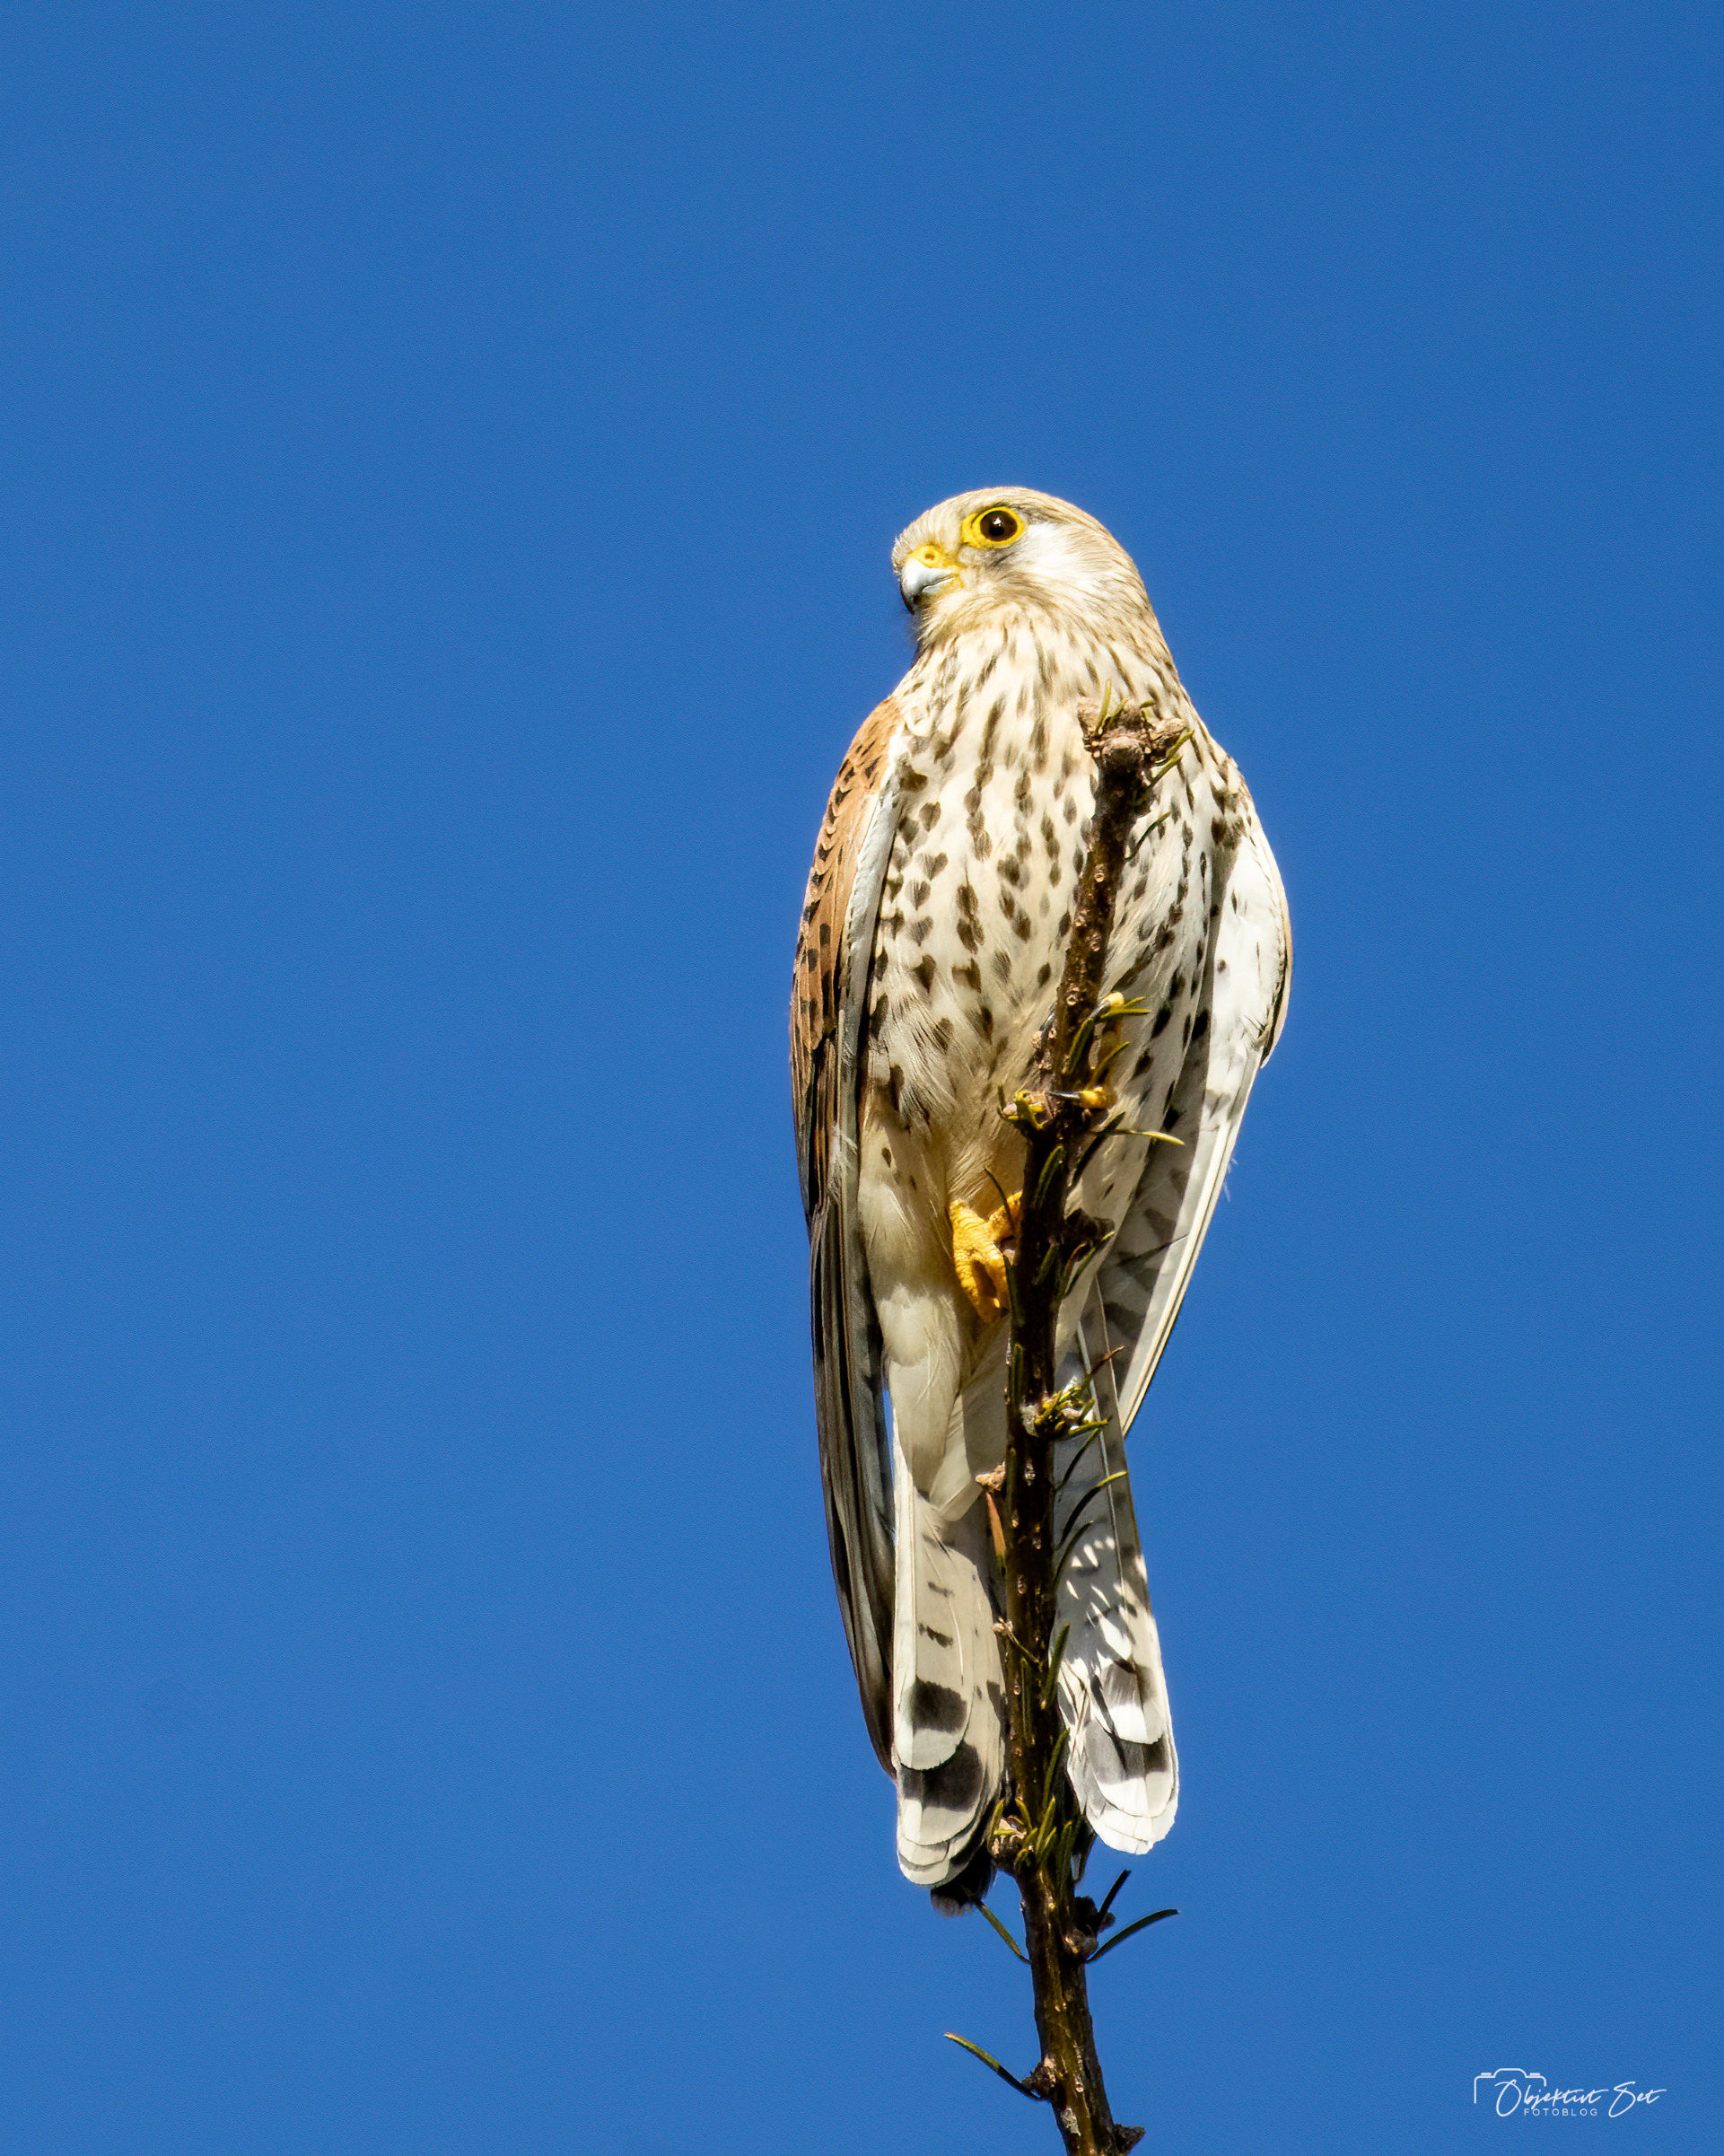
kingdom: Animalia
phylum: Chordata
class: Aves
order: Falconiformes
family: Falconidae
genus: Falco
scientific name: Falco tinnunculus
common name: Tårnfalk
